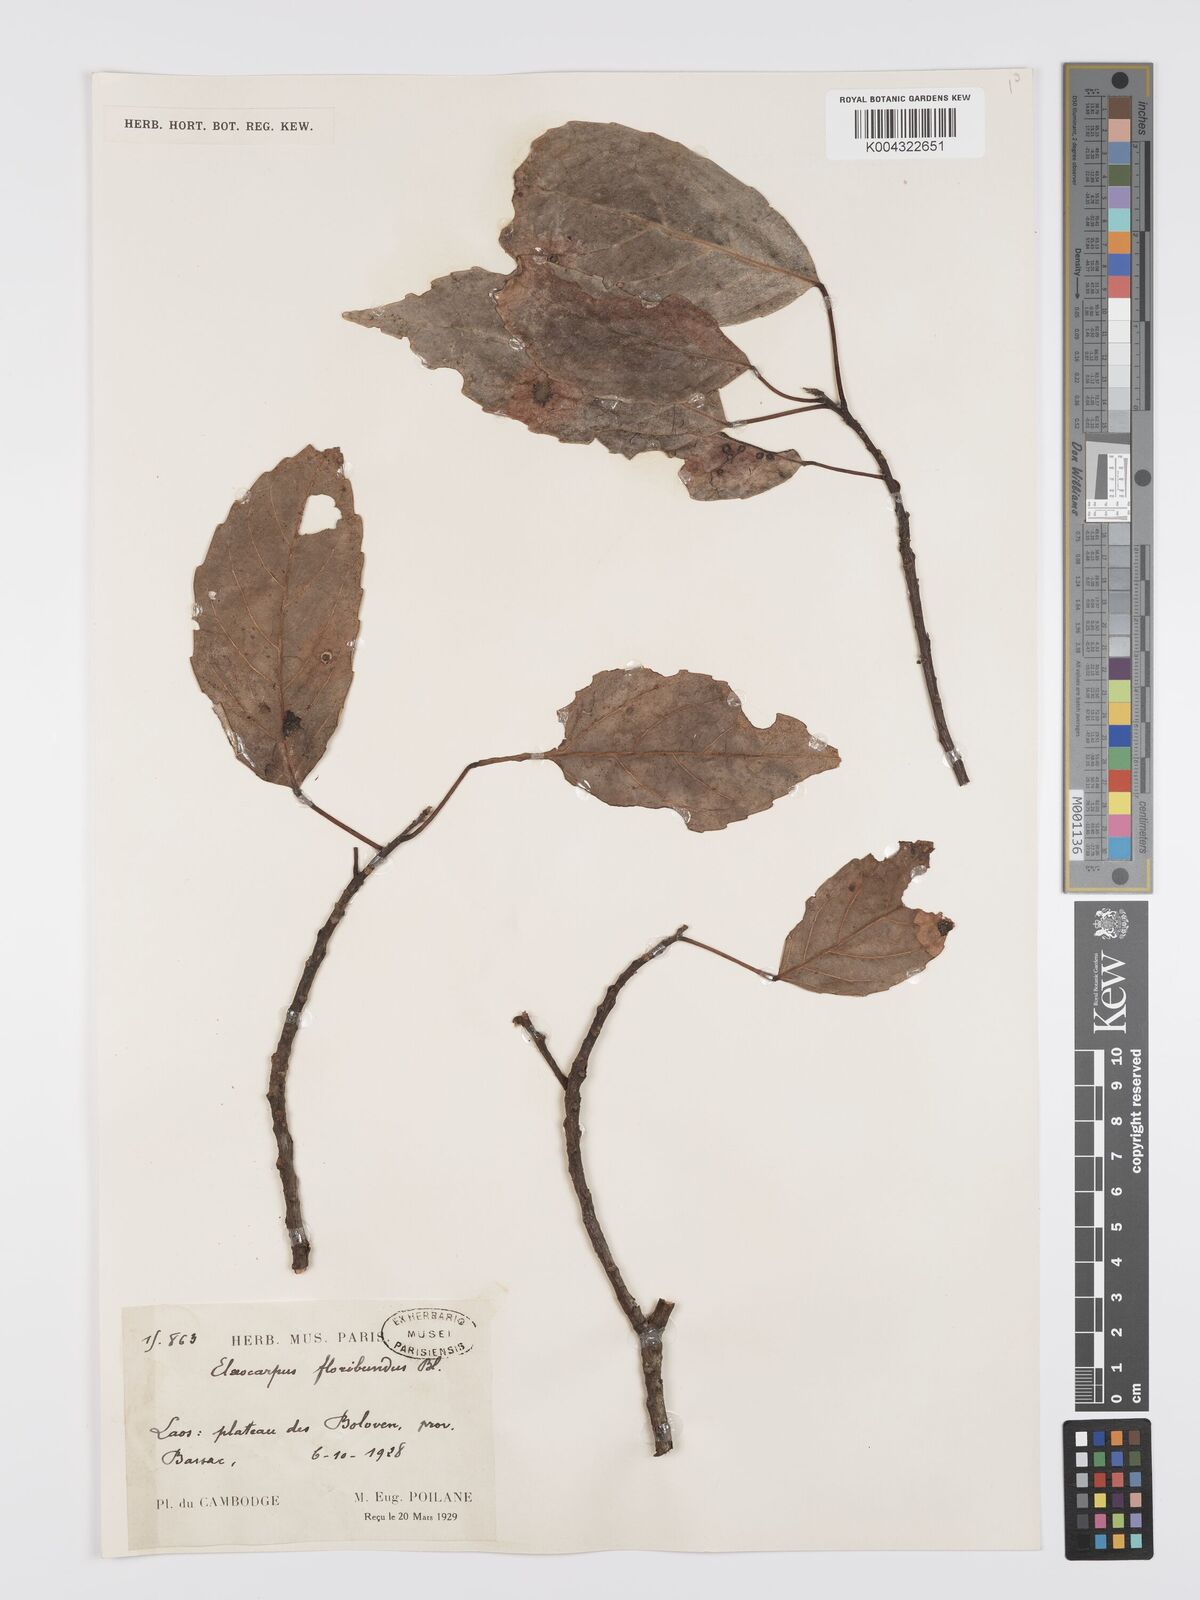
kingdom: Plantae
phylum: Tracheophyta
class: Magnoliopsida
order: Oxalidales
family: Elaeocarpaceae
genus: Elaeocarpus
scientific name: Elaeocarpus floribundus
